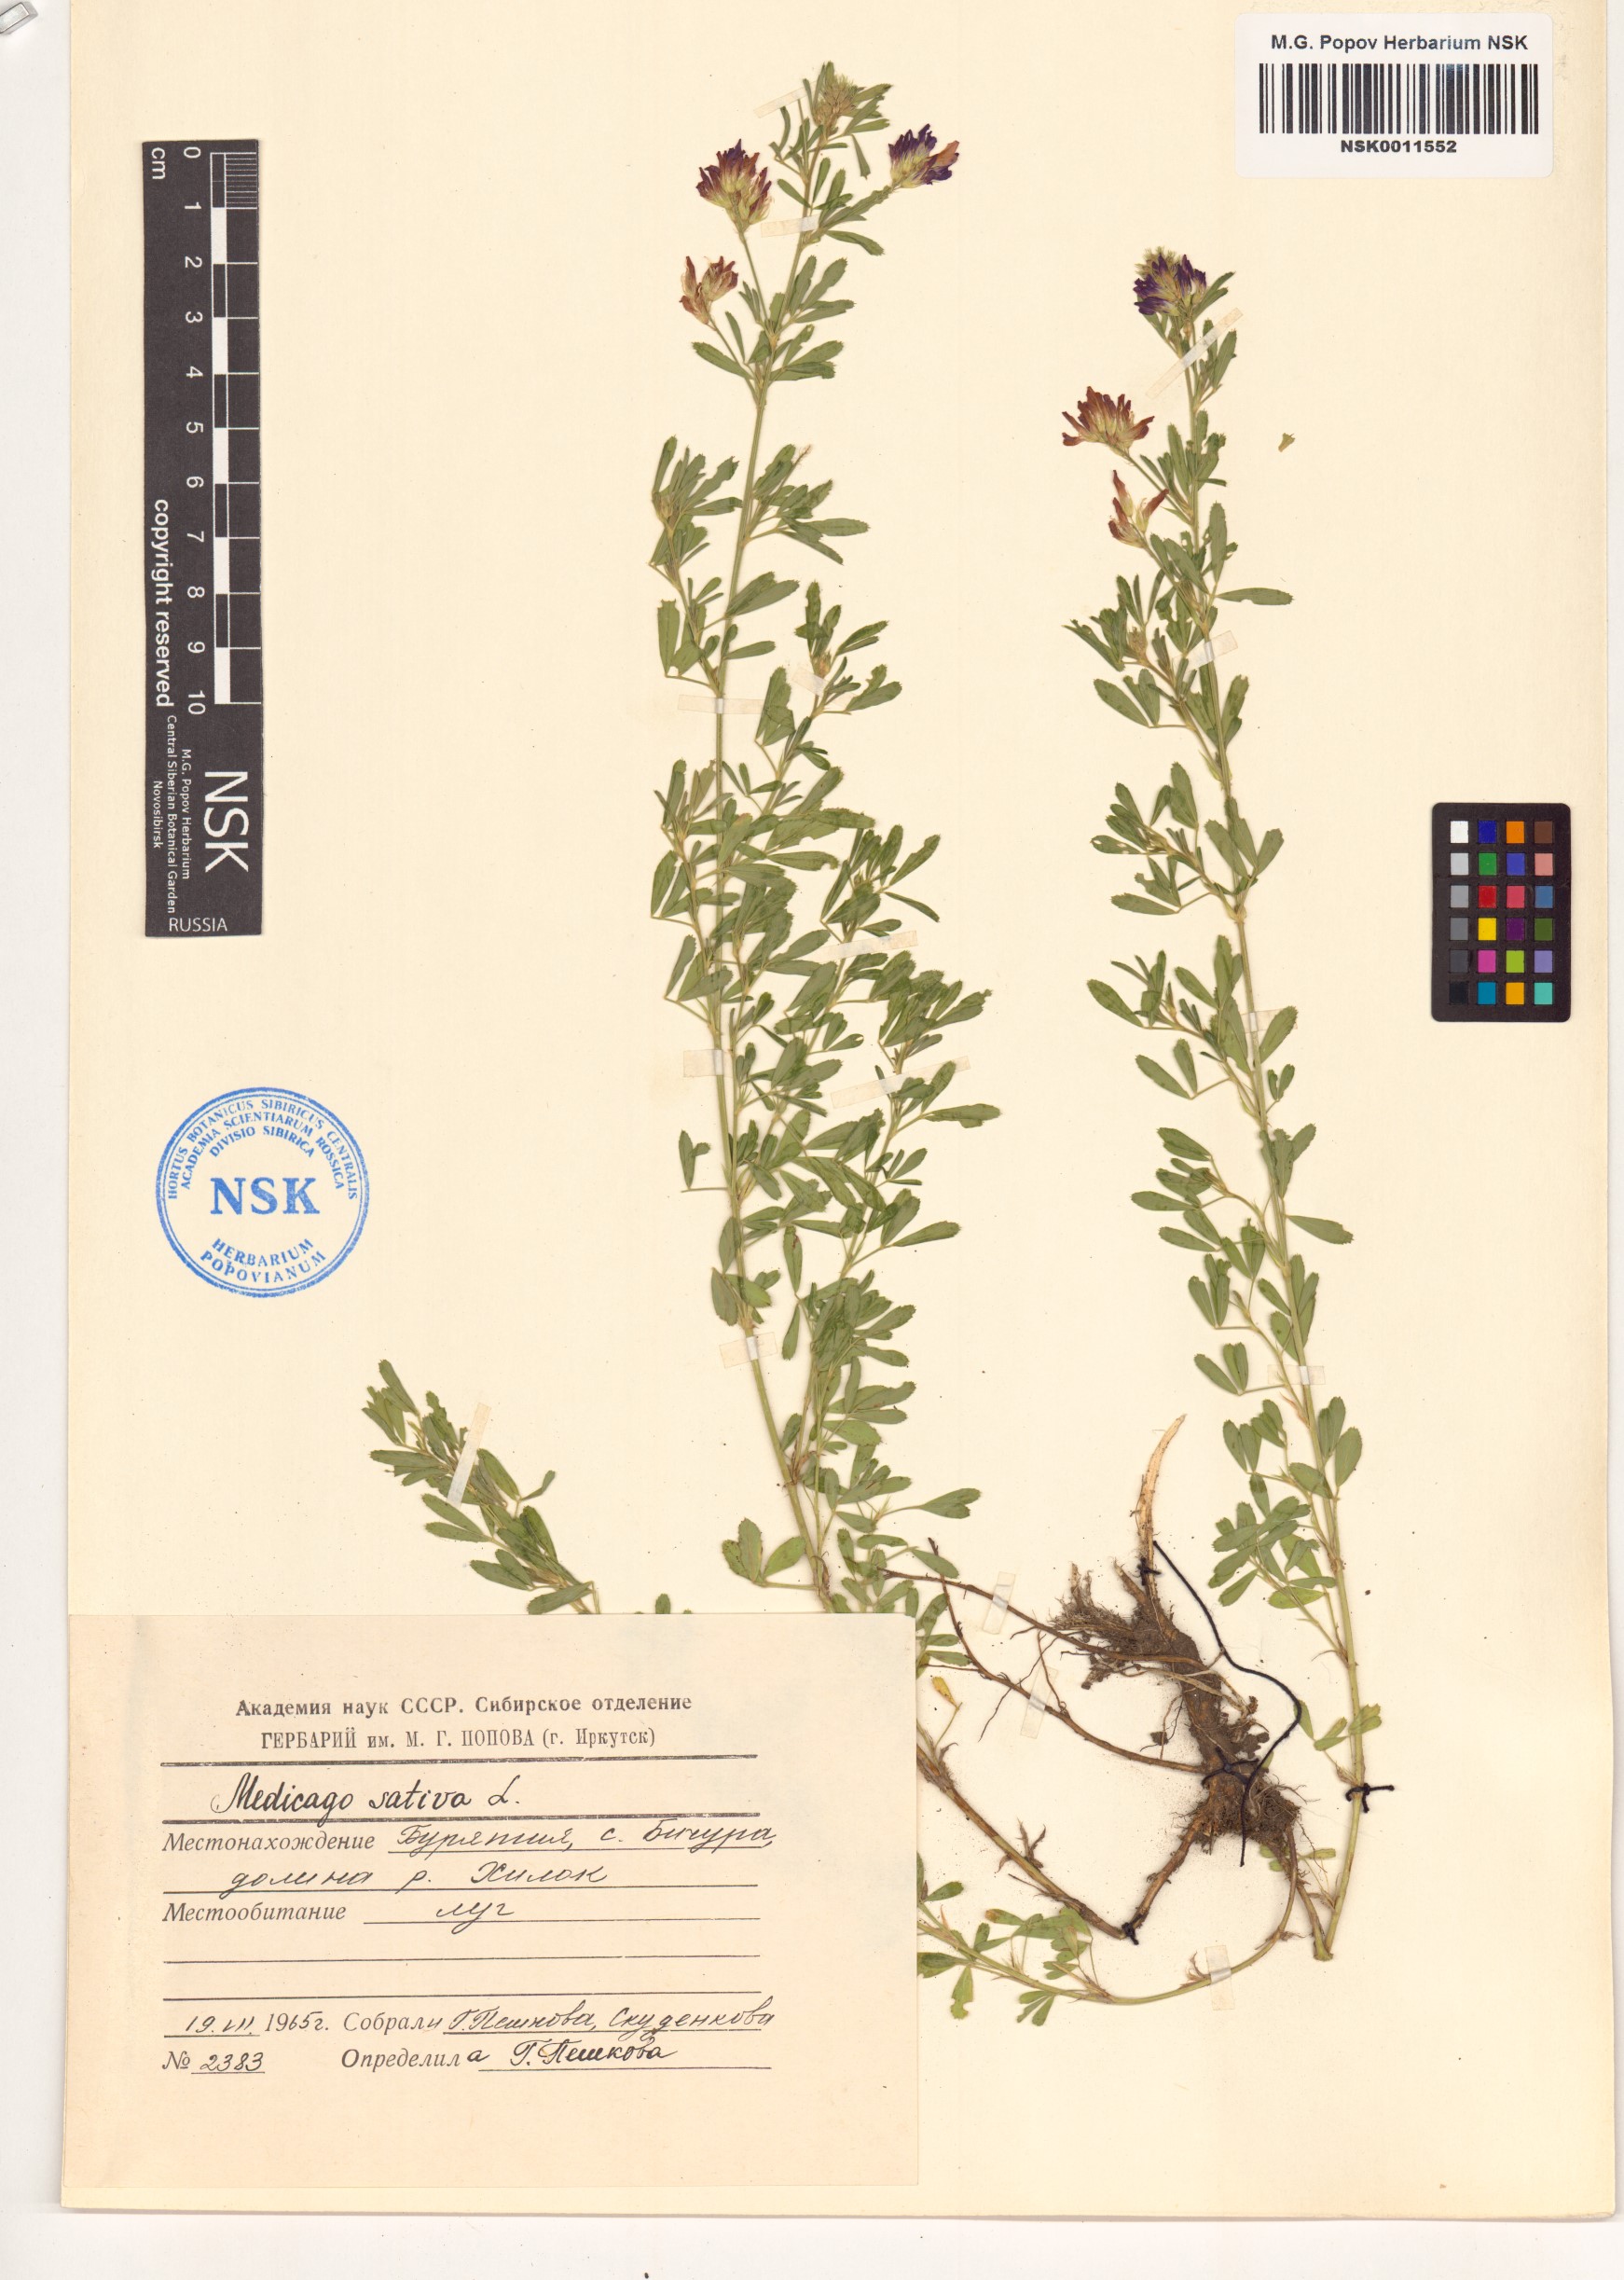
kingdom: Plantae
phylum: Tracheophyta
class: Magnoliopsida
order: Fabales
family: Fabaceae
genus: Medicago
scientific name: Medicago sativa
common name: Alfalfa
